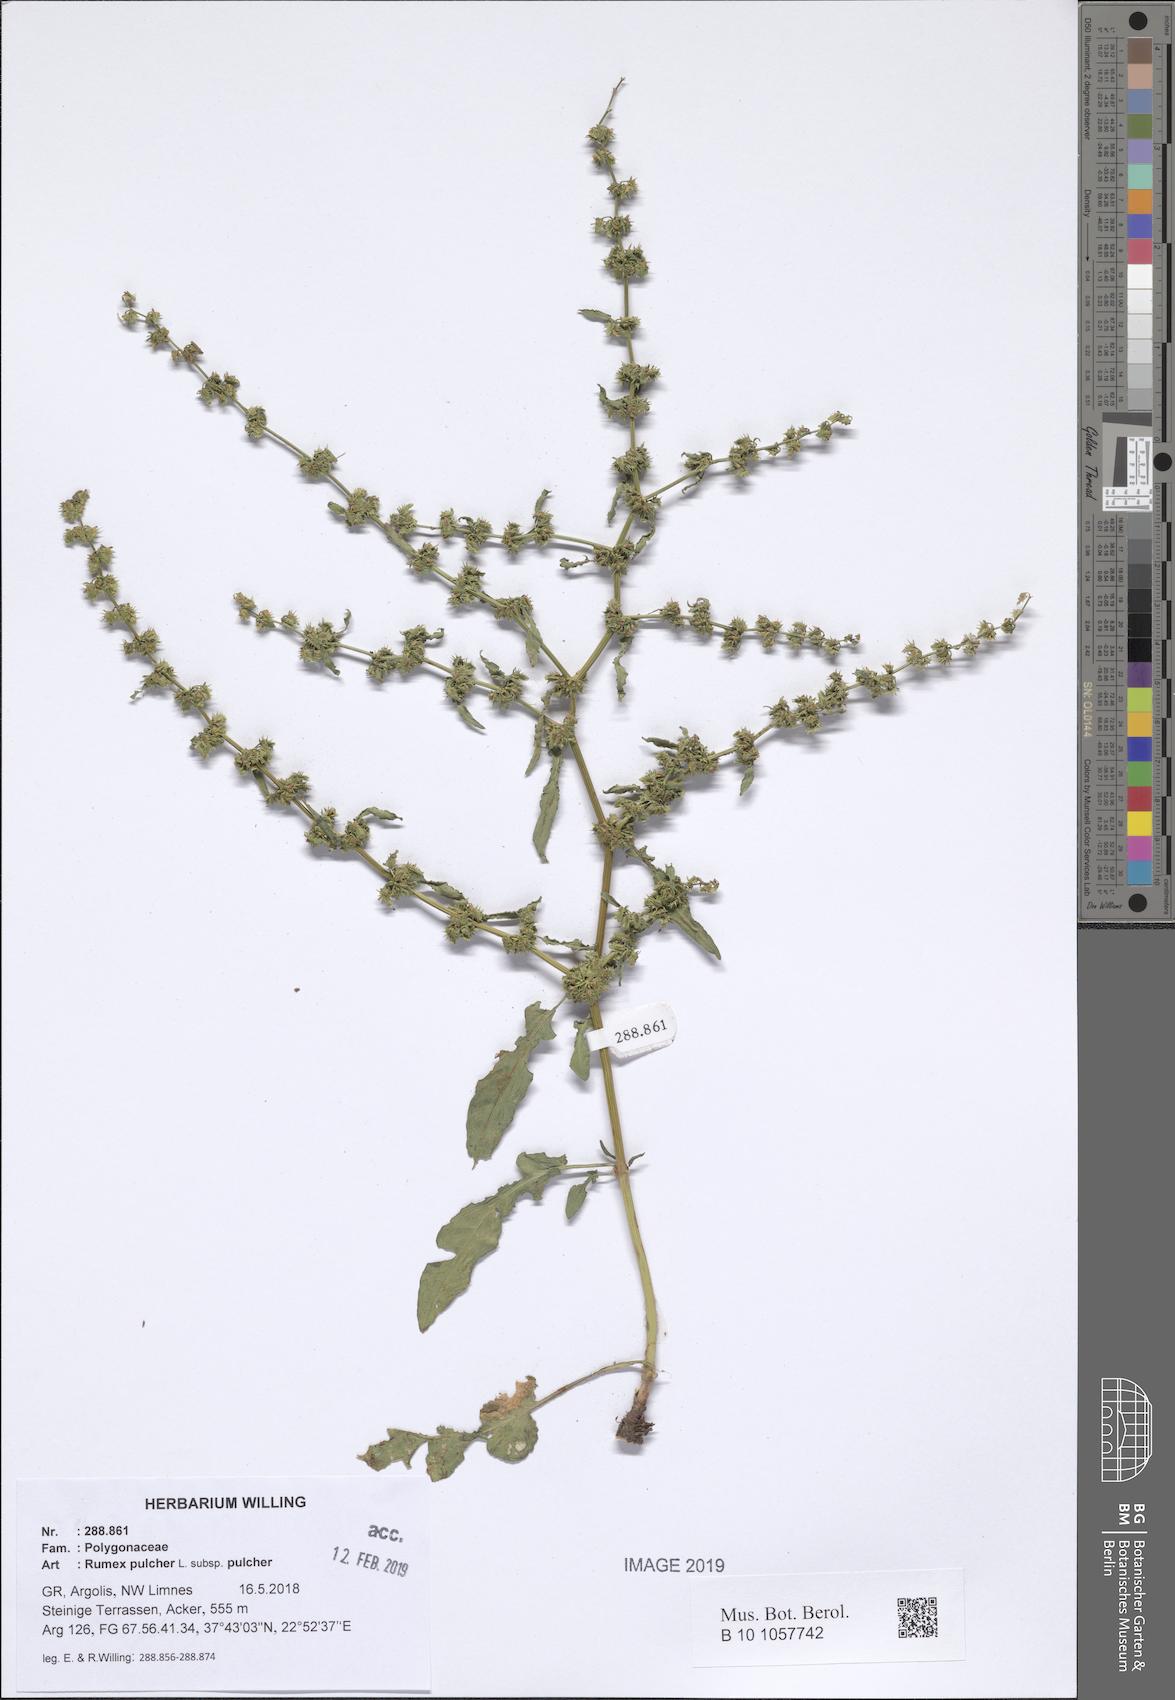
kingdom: Plantae
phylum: Tracheophyta
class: Magnoliopsida
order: Caryophyllales
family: Polygonaceae
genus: Rumex
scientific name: Rumex pulcher
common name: Fiddle dock
